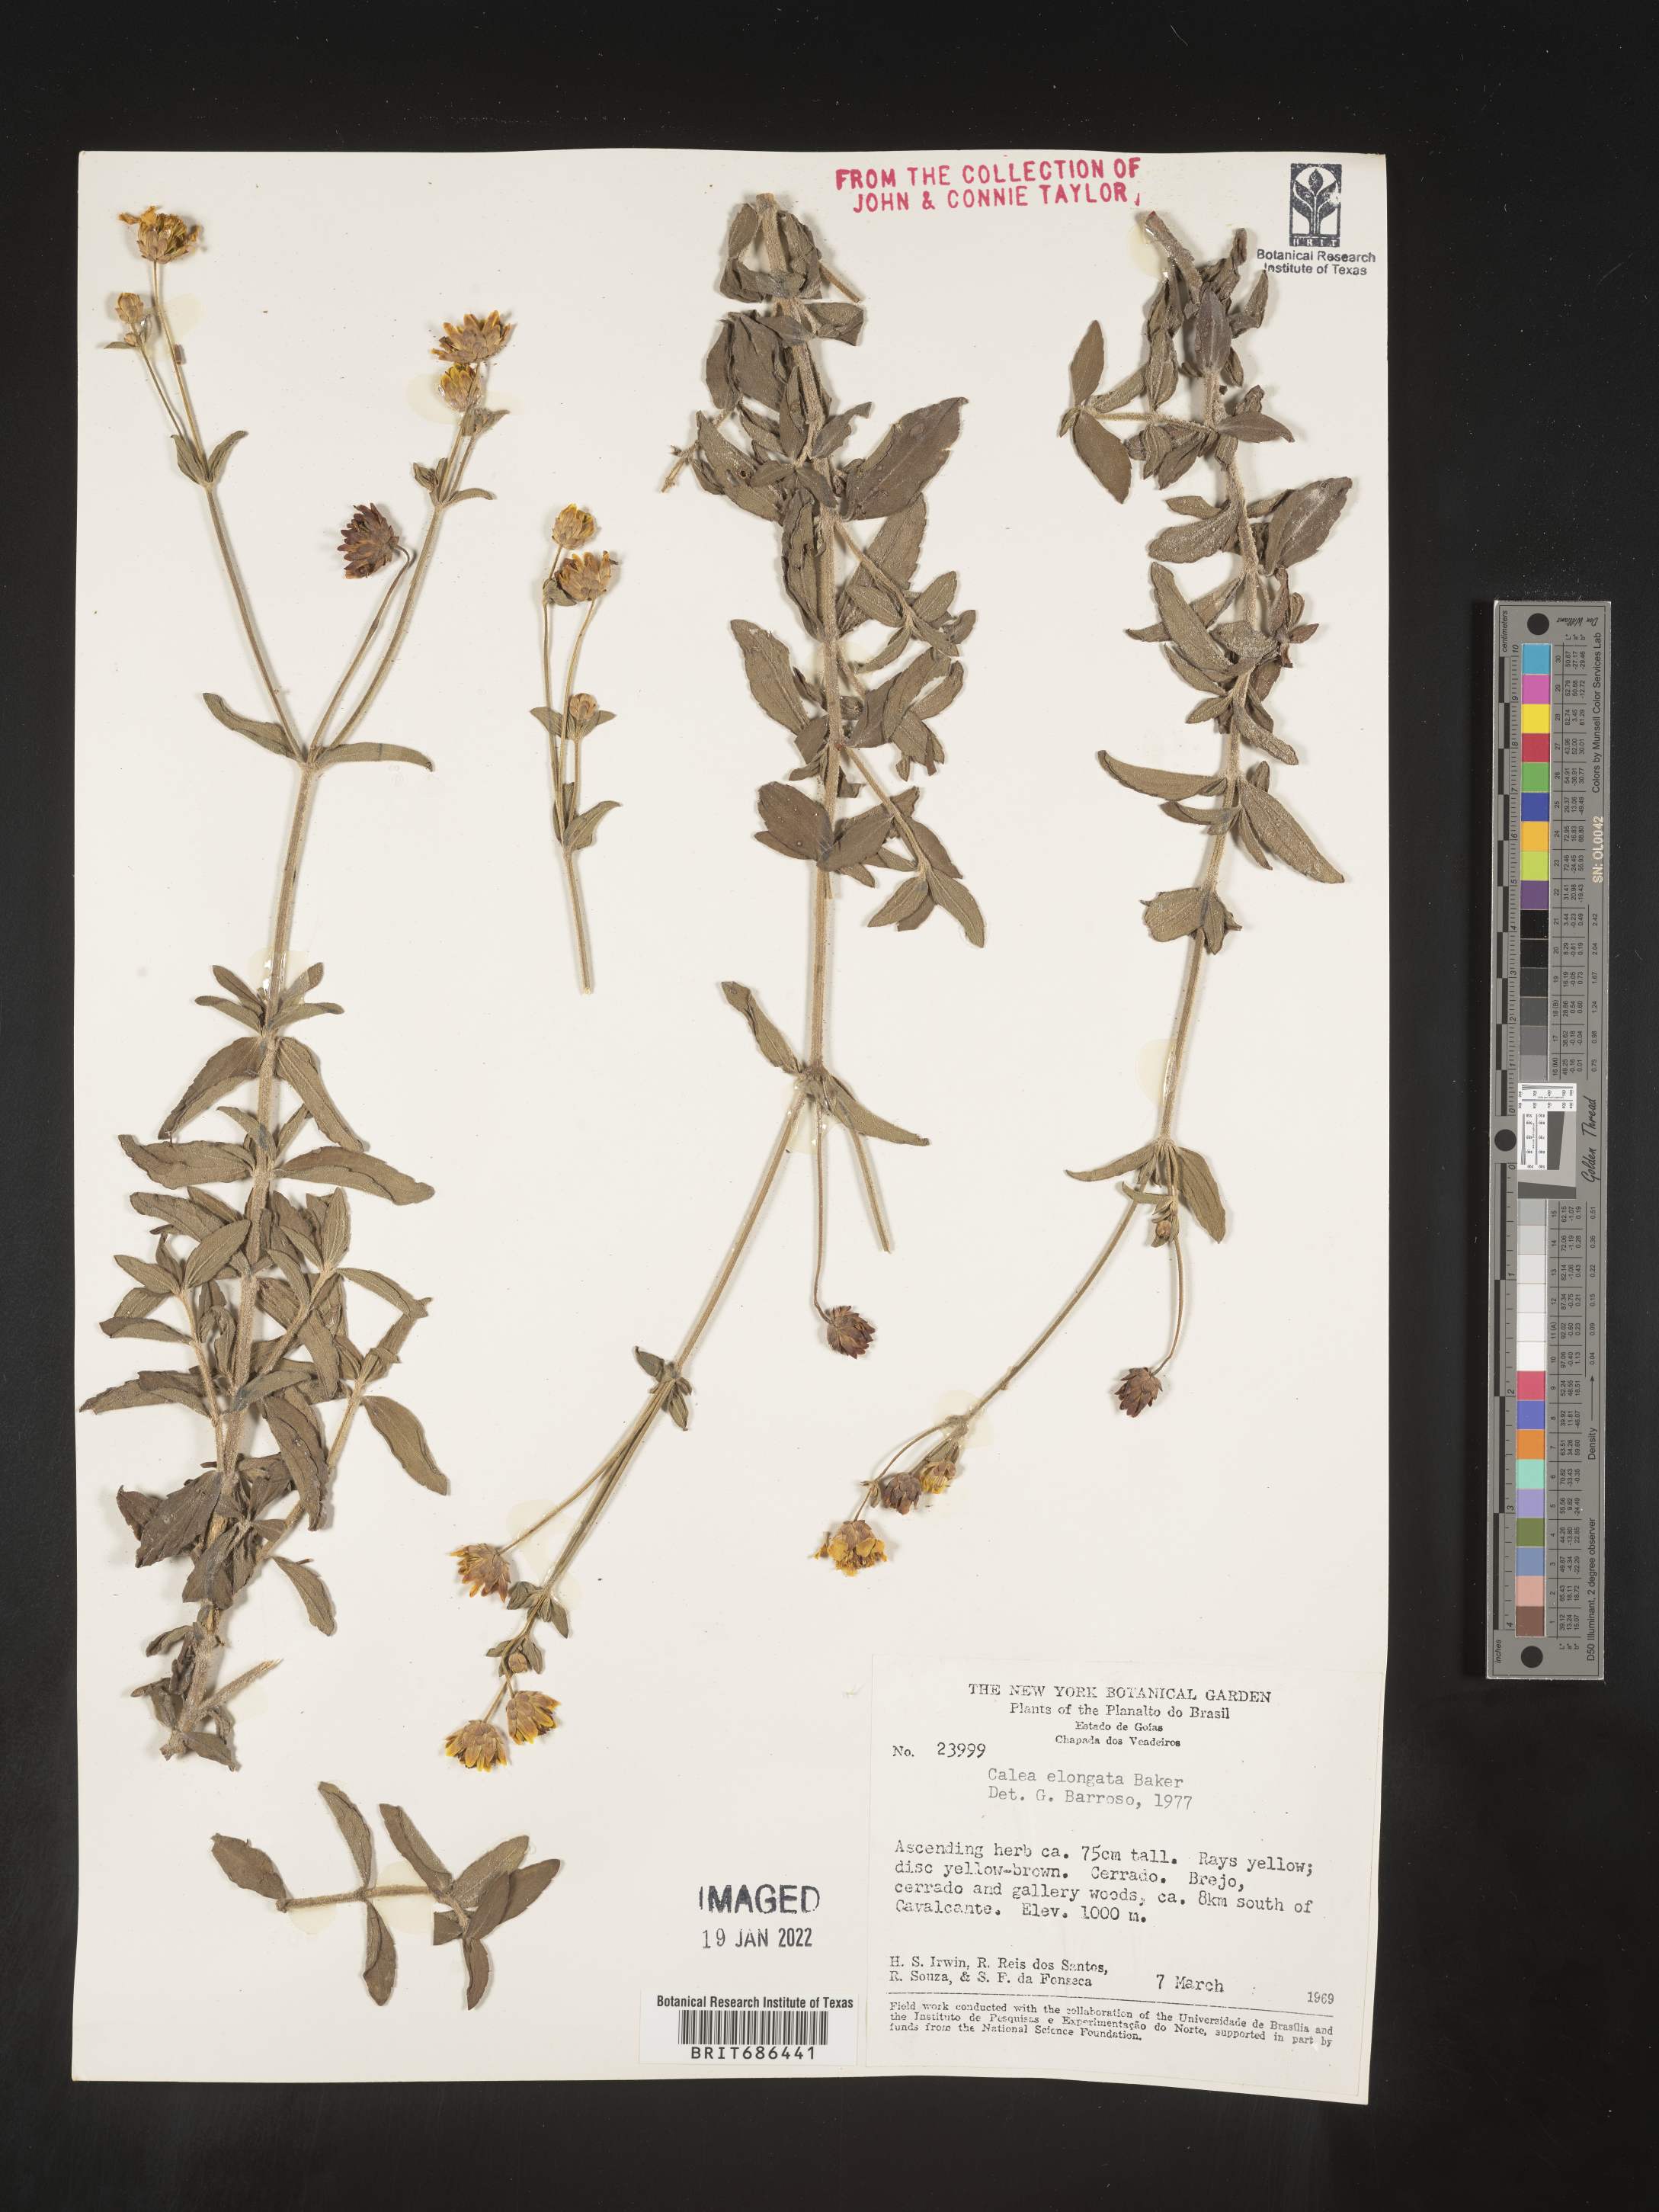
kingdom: Plantae
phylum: Tracheophyta
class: Magnoliopsida
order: Asterales
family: Asteraceae
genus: Calea
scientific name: Calea candolleana
